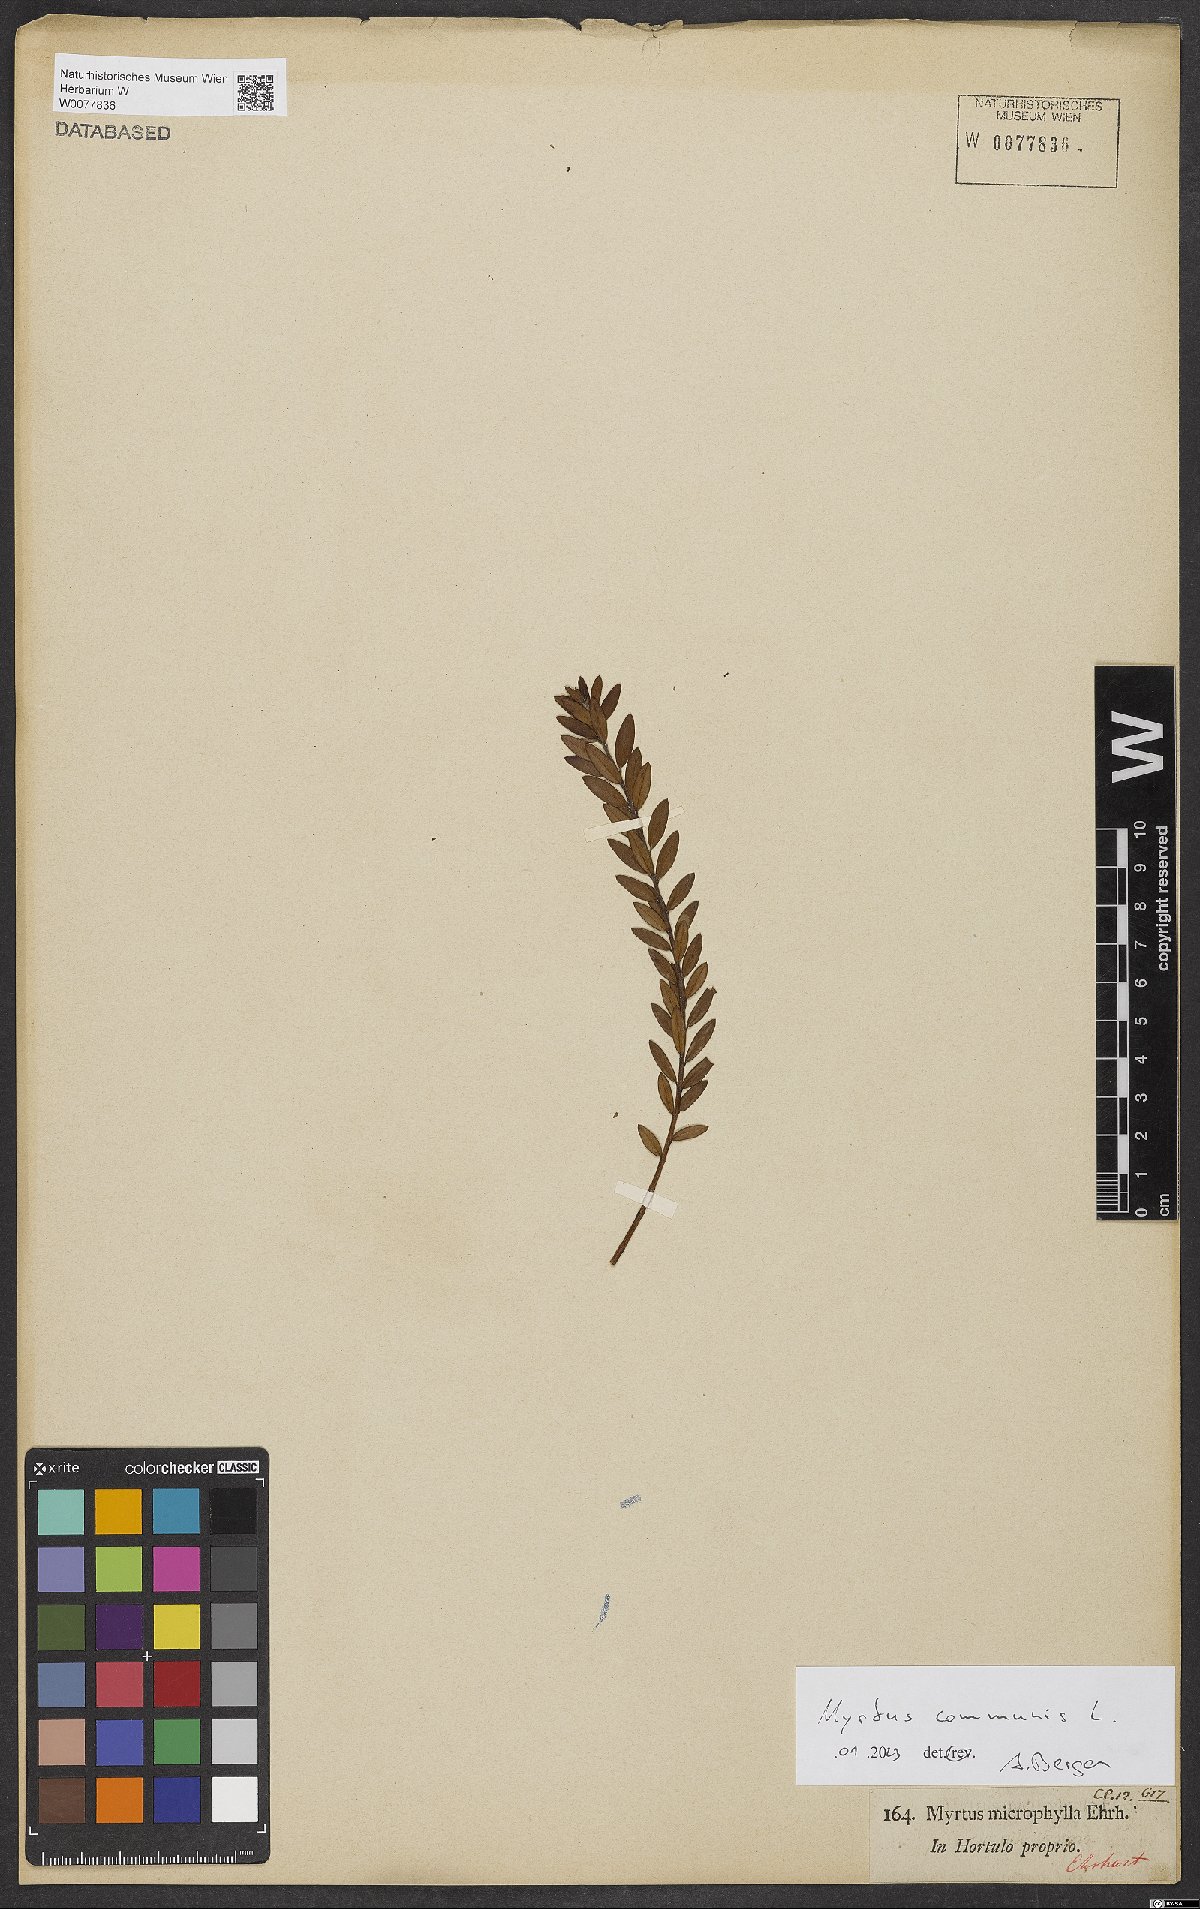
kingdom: Plantae
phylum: Tracheophyta
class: Magnoliopsida
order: Myrtales
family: Myrtaceae
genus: Myrtus
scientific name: Myrtus communis
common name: Myrtle
